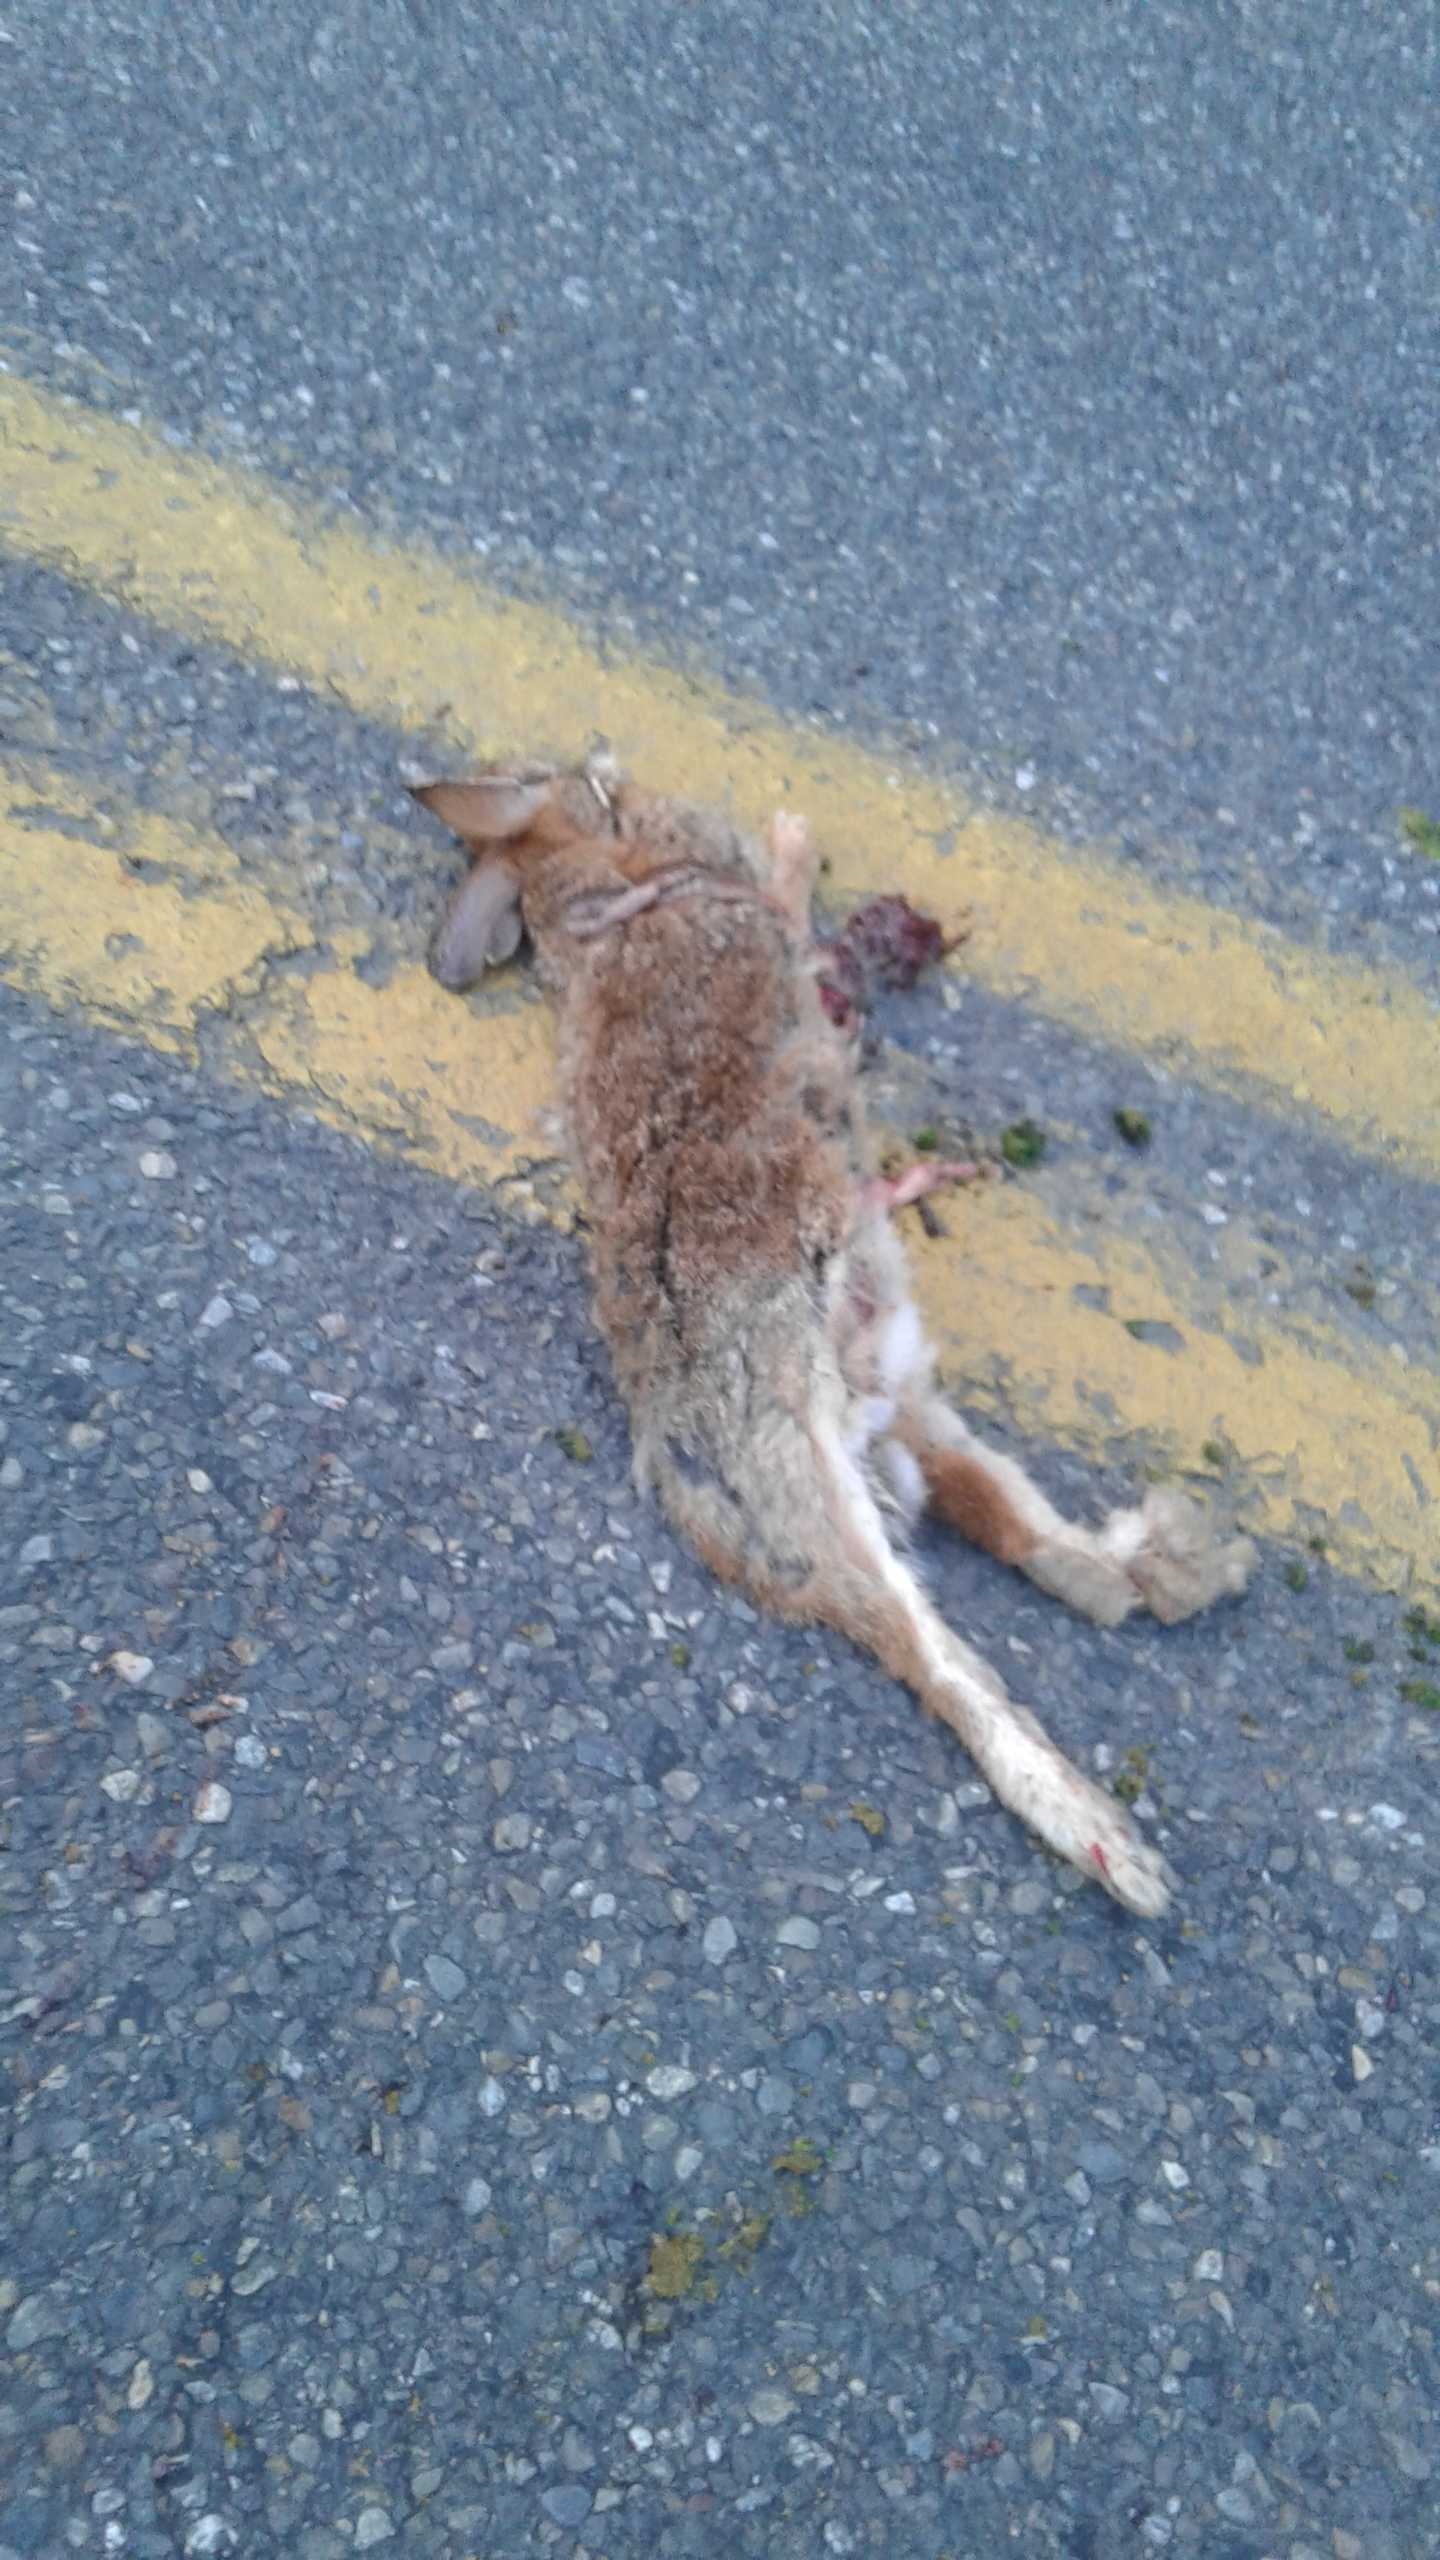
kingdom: Animalia
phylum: Chordata
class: Mammalia
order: Lagomorpha
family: Leporidae
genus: Sylvilagus
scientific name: Sylvilagus
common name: rabbit
